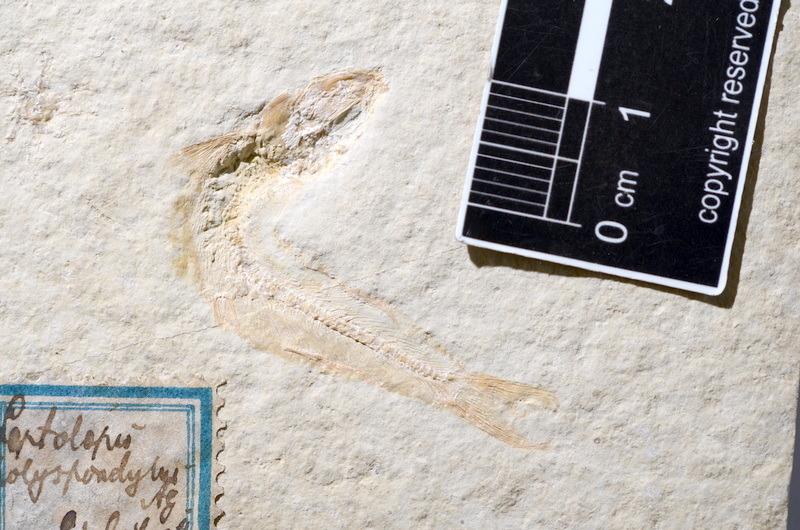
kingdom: Animalia
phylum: Chordata
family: Allothrissopidae
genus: Allothrissops
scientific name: Allothrissops mesogaster
